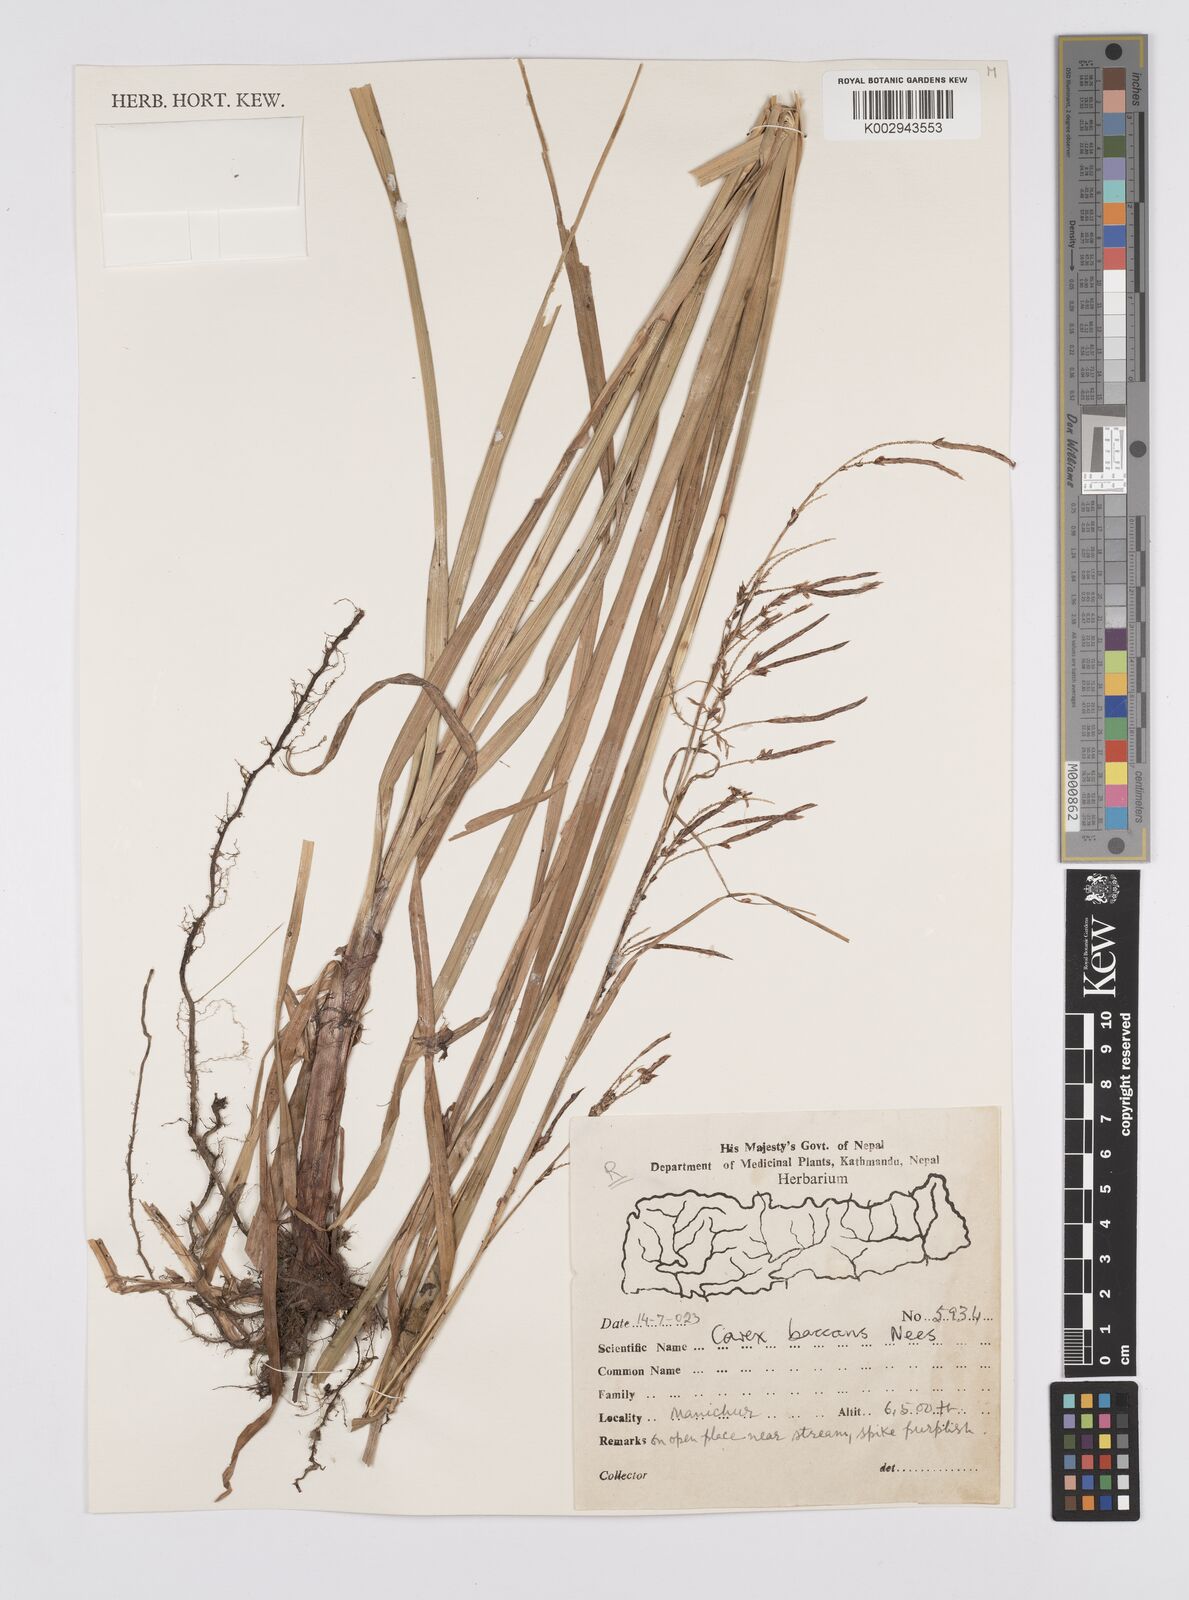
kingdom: Plantae
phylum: Tracheophyta
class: Liliopsida
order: Poales
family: Cyperaceae
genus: Carex
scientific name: Carex baccans
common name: Crimson seeded sedge
